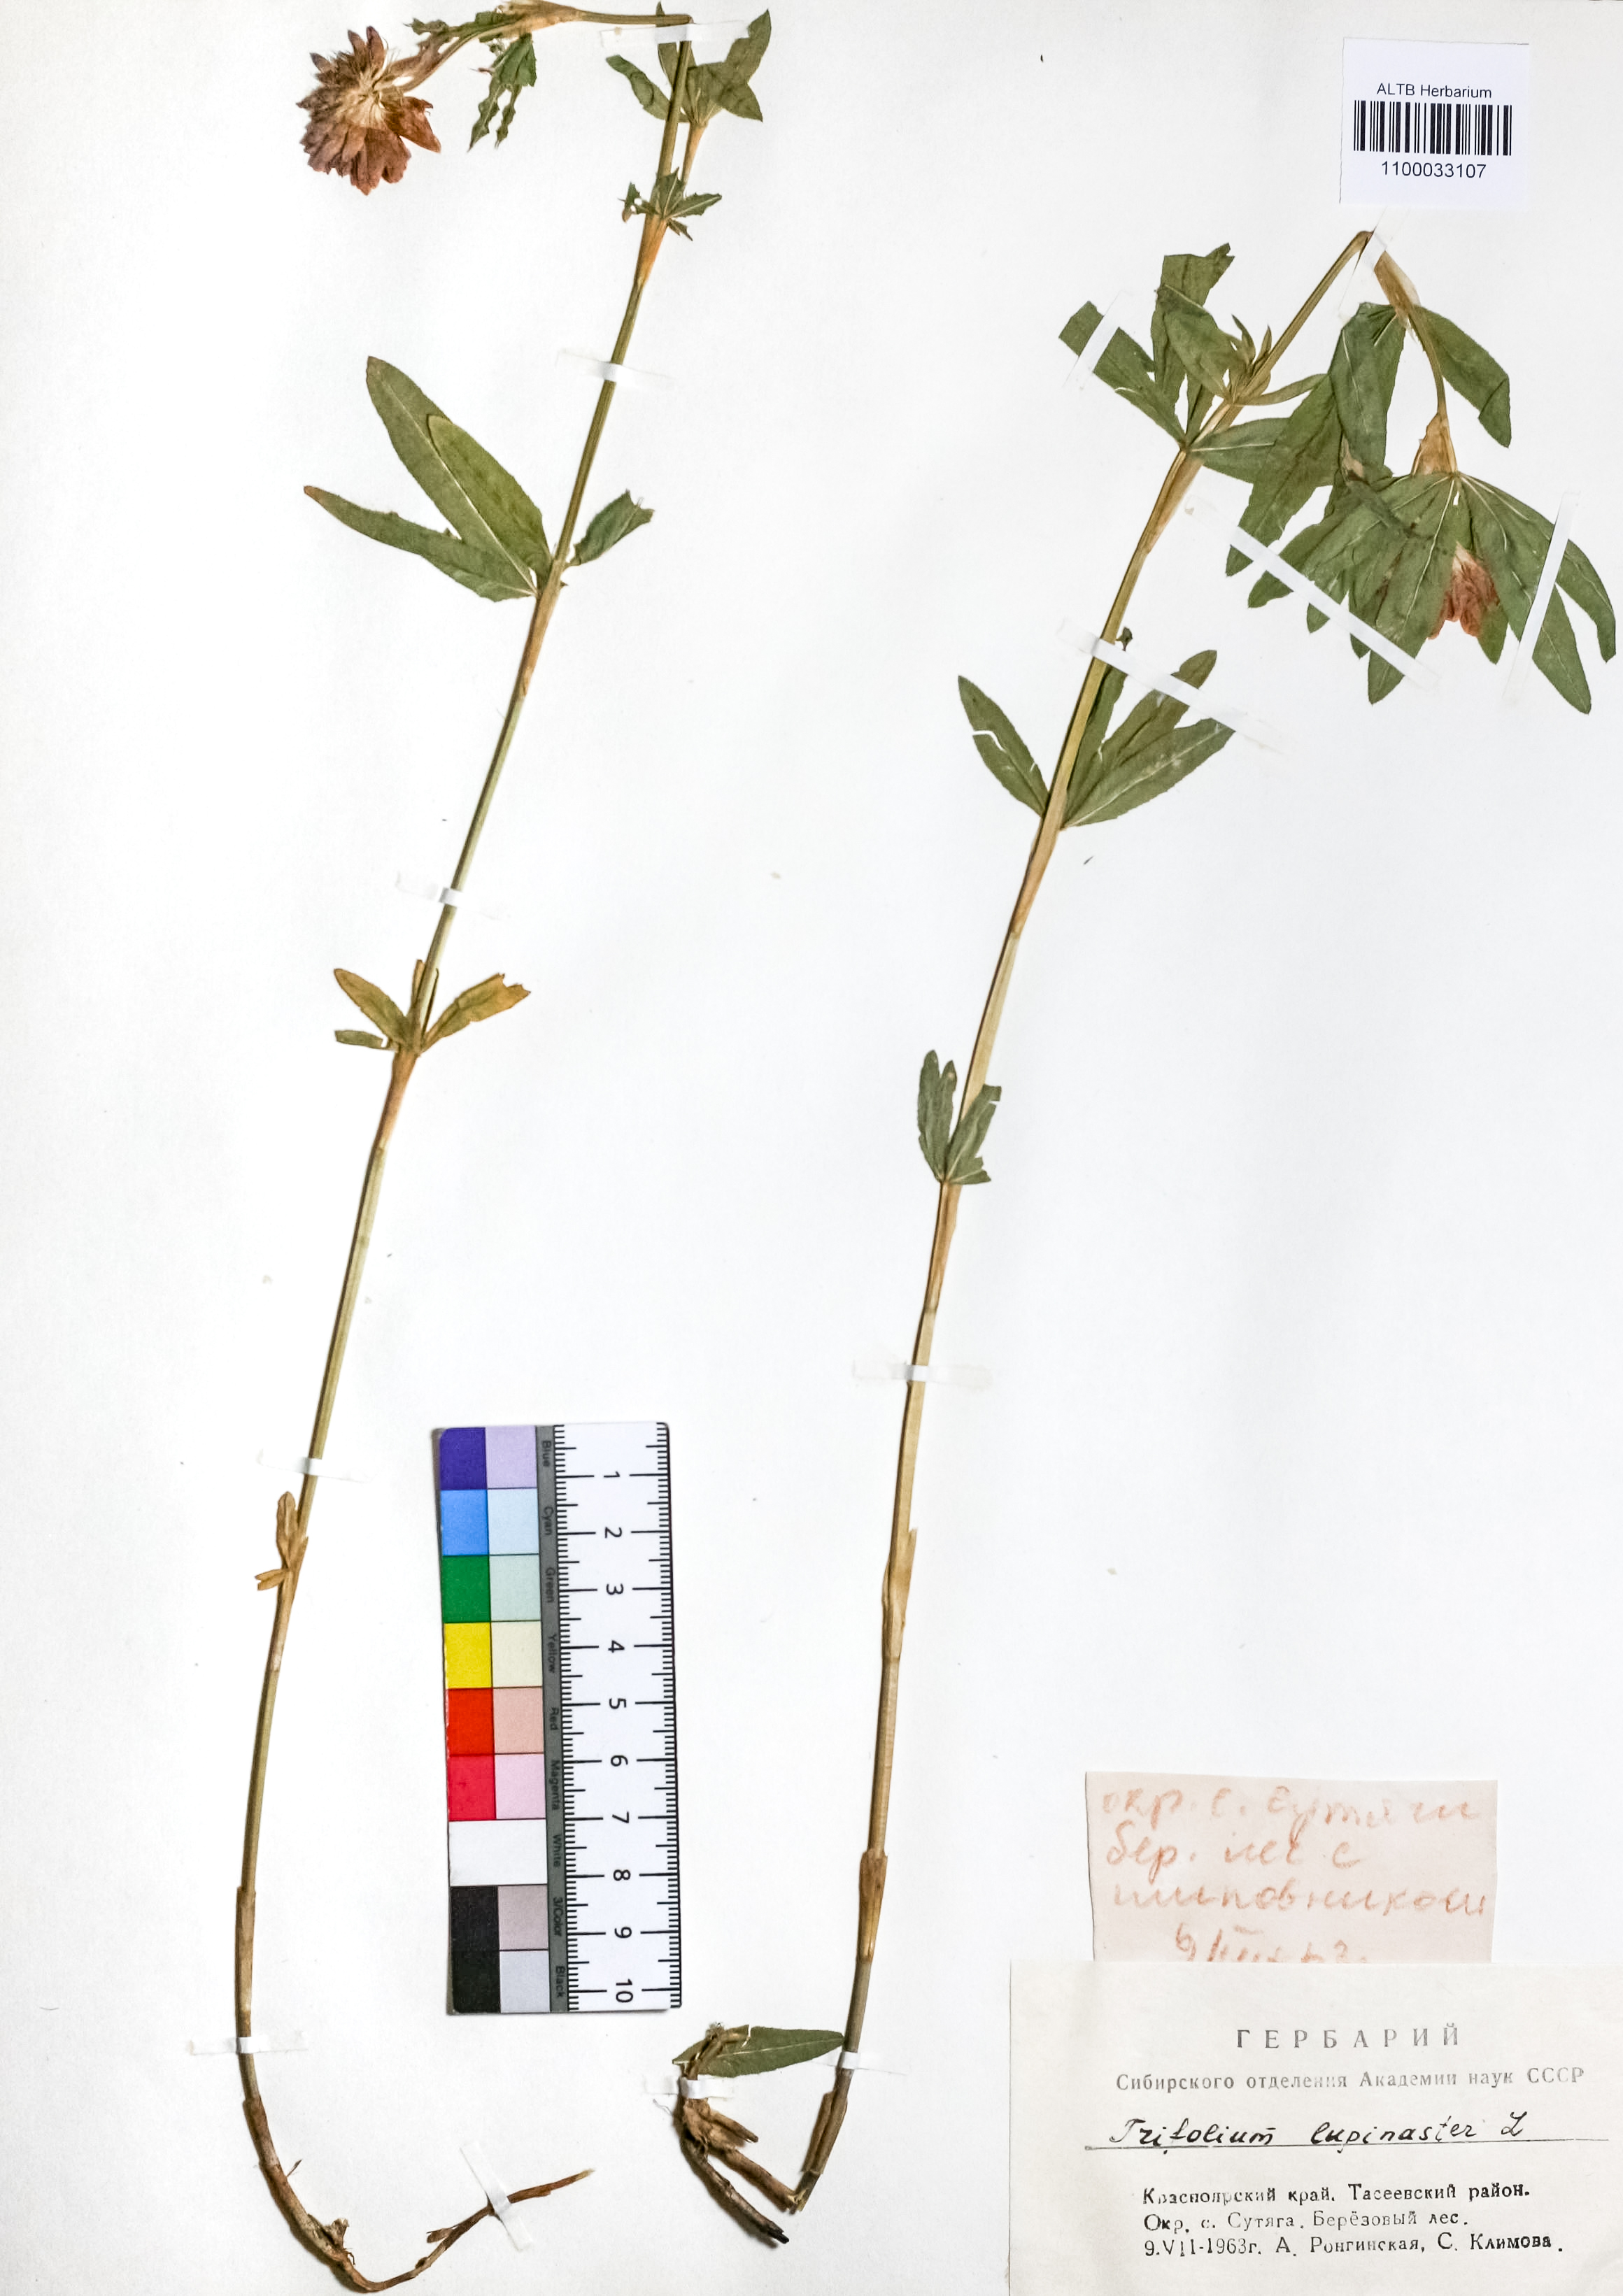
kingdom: Plantae
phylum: Tracheophyta
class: Magnoliopsida
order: Fabales
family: Fabaceae
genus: Trifolium
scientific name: Trifolium lupinaster
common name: Lupine clover
